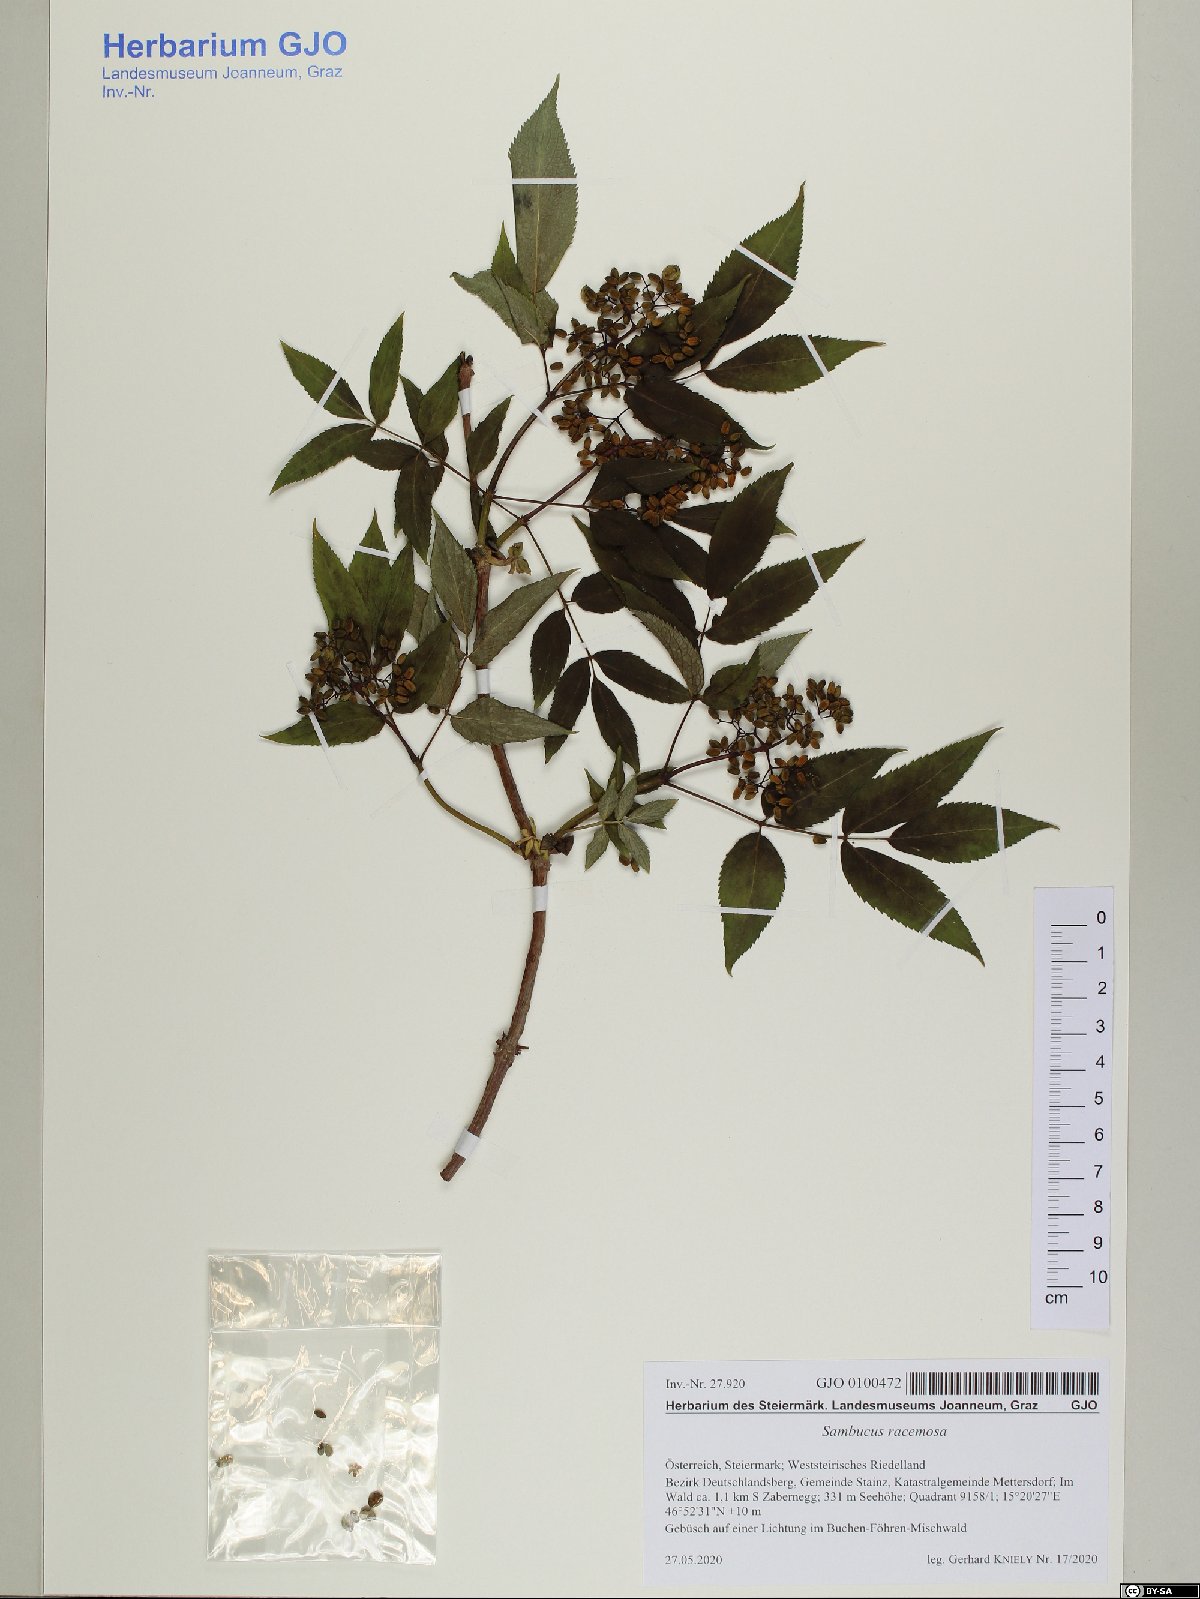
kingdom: Plantae
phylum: Tracheophyta
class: Magnoliopsida
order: Dipsacales
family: Viburnaceae
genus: Sambucus
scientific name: Sambucus racemosa
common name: Red-berried elder
